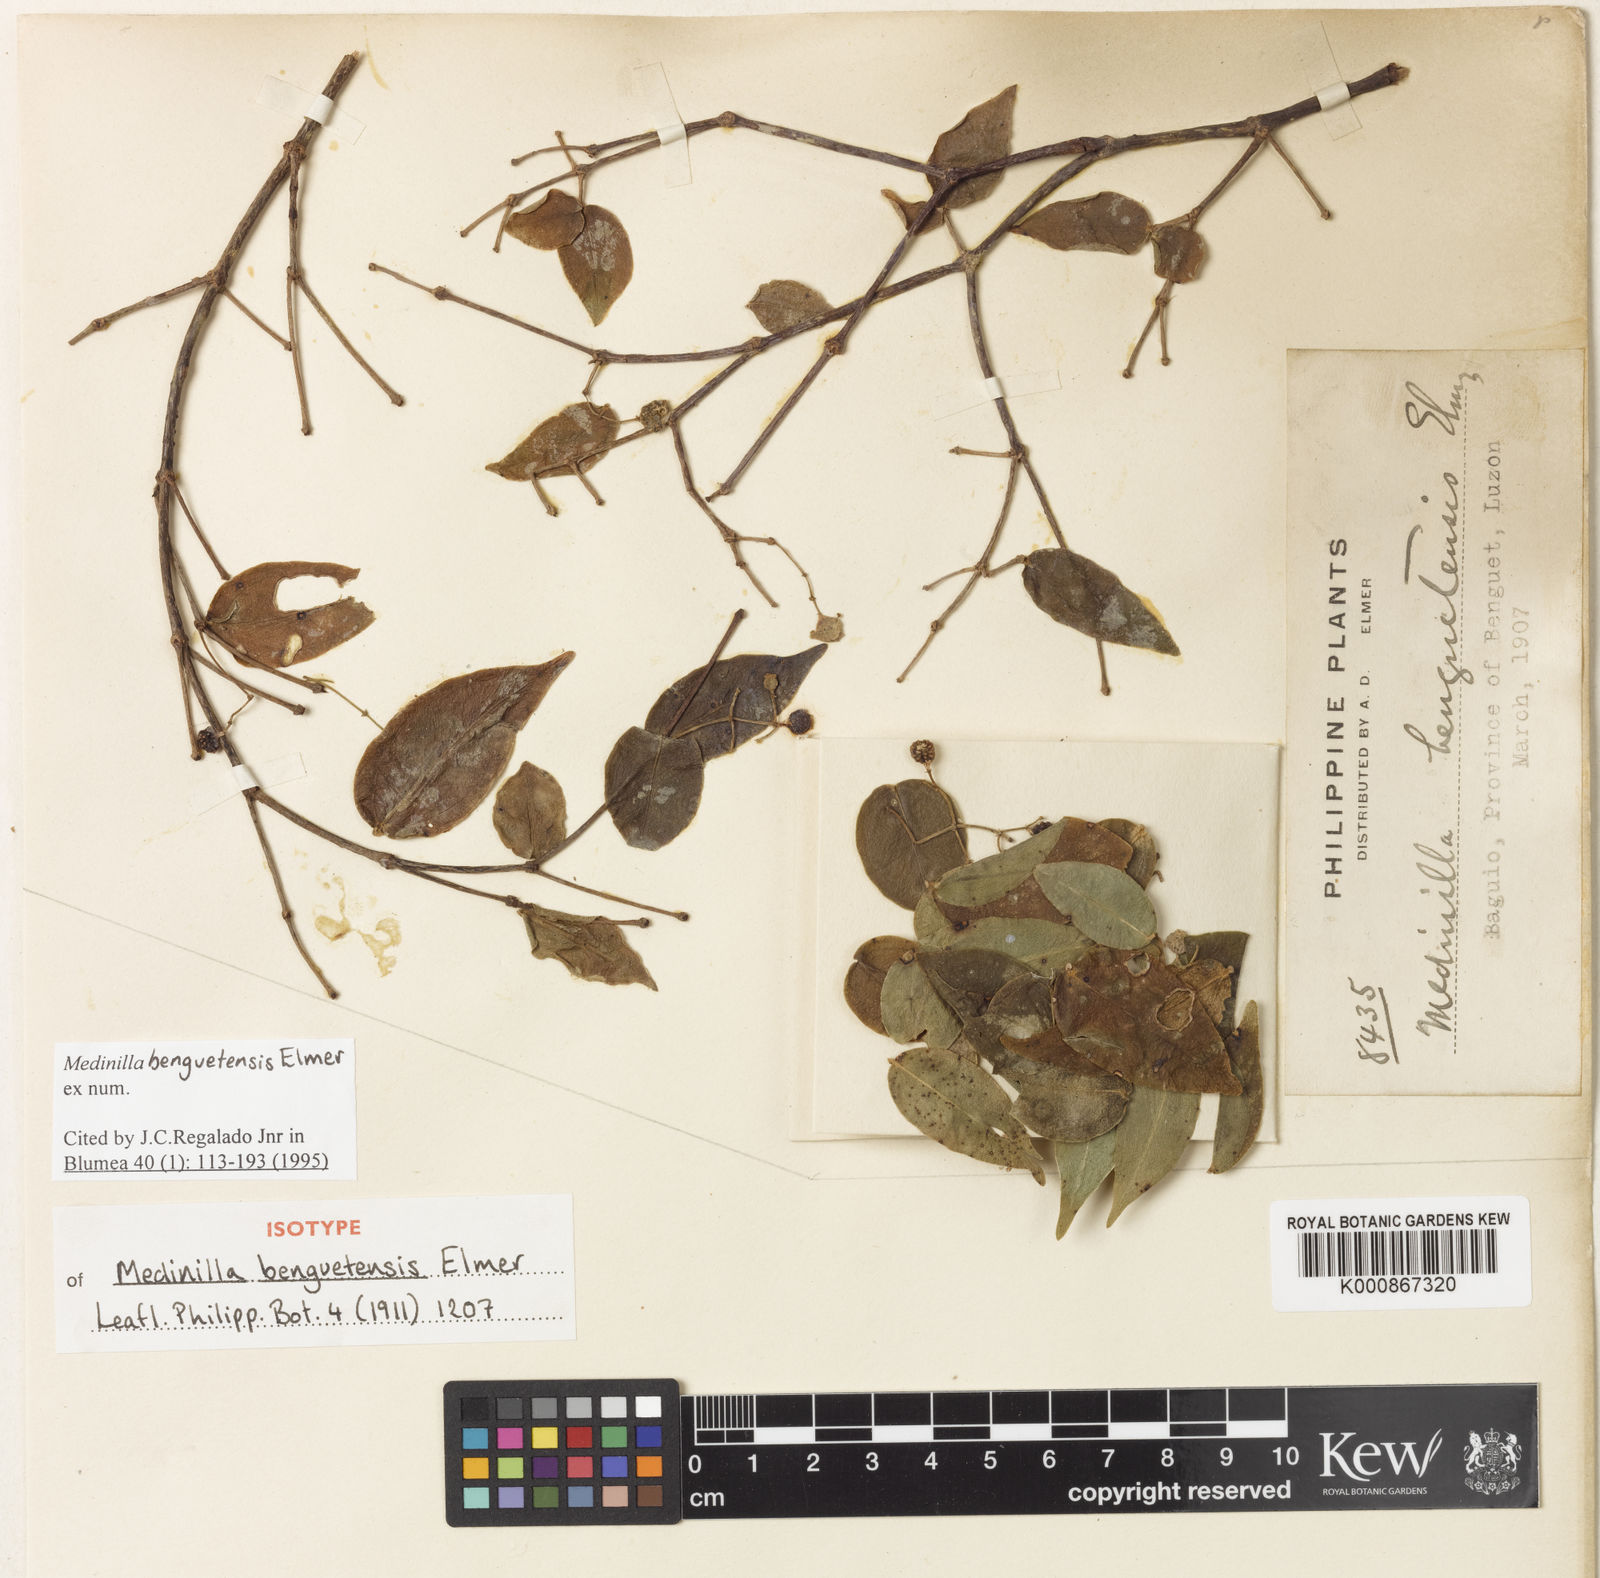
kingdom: Plantae
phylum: Tracheophyta
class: Magnoliopsida
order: Myrtales
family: Melastomataceae
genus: Medinilla
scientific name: Medinilla benguetensis
